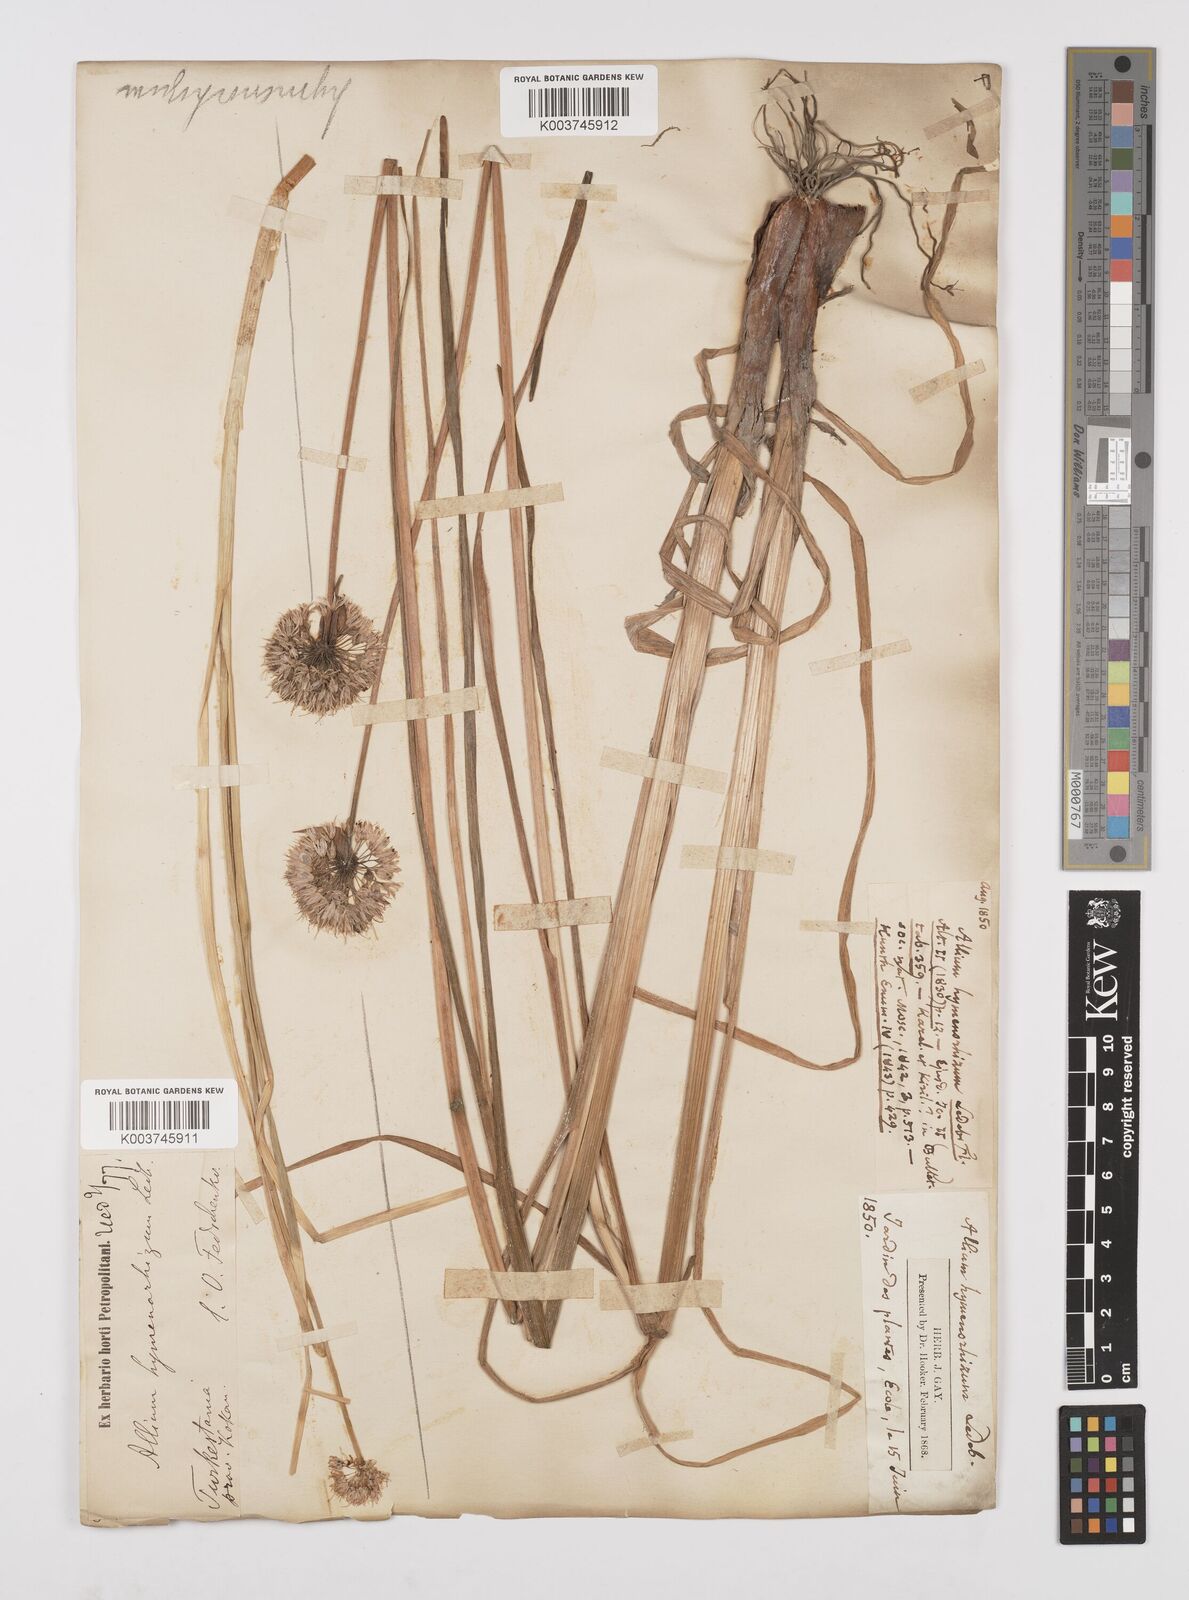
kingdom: Plantae
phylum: Tracheophyta
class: Liliopsida
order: Asparagales
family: Amaryllidaceae
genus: Allium
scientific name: Allium hymenorhizum
